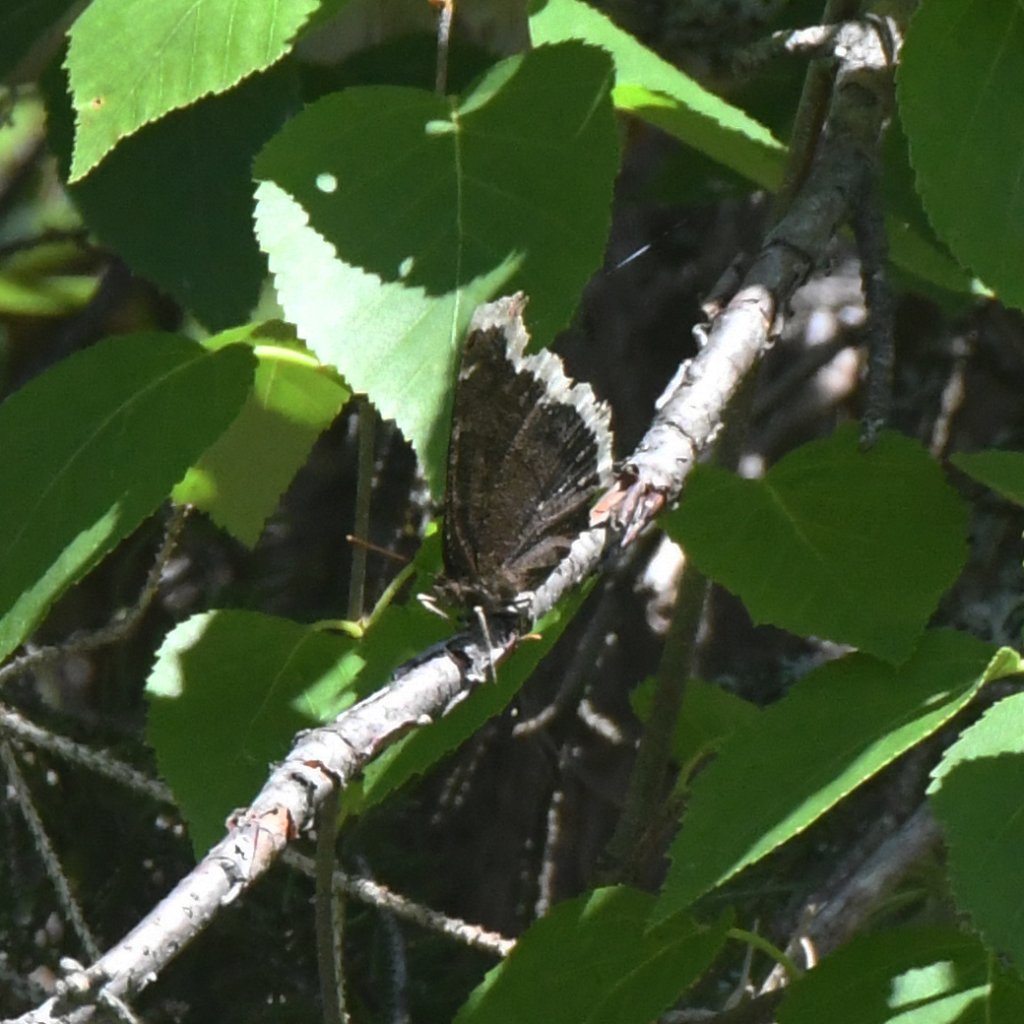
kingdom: Animalia
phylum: Arthropoda
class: Insecta
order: Lepidoptera
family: Nymphalidae
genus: Nymphalis
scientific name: Nymphalis antiopa
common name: Mourning Cloak
